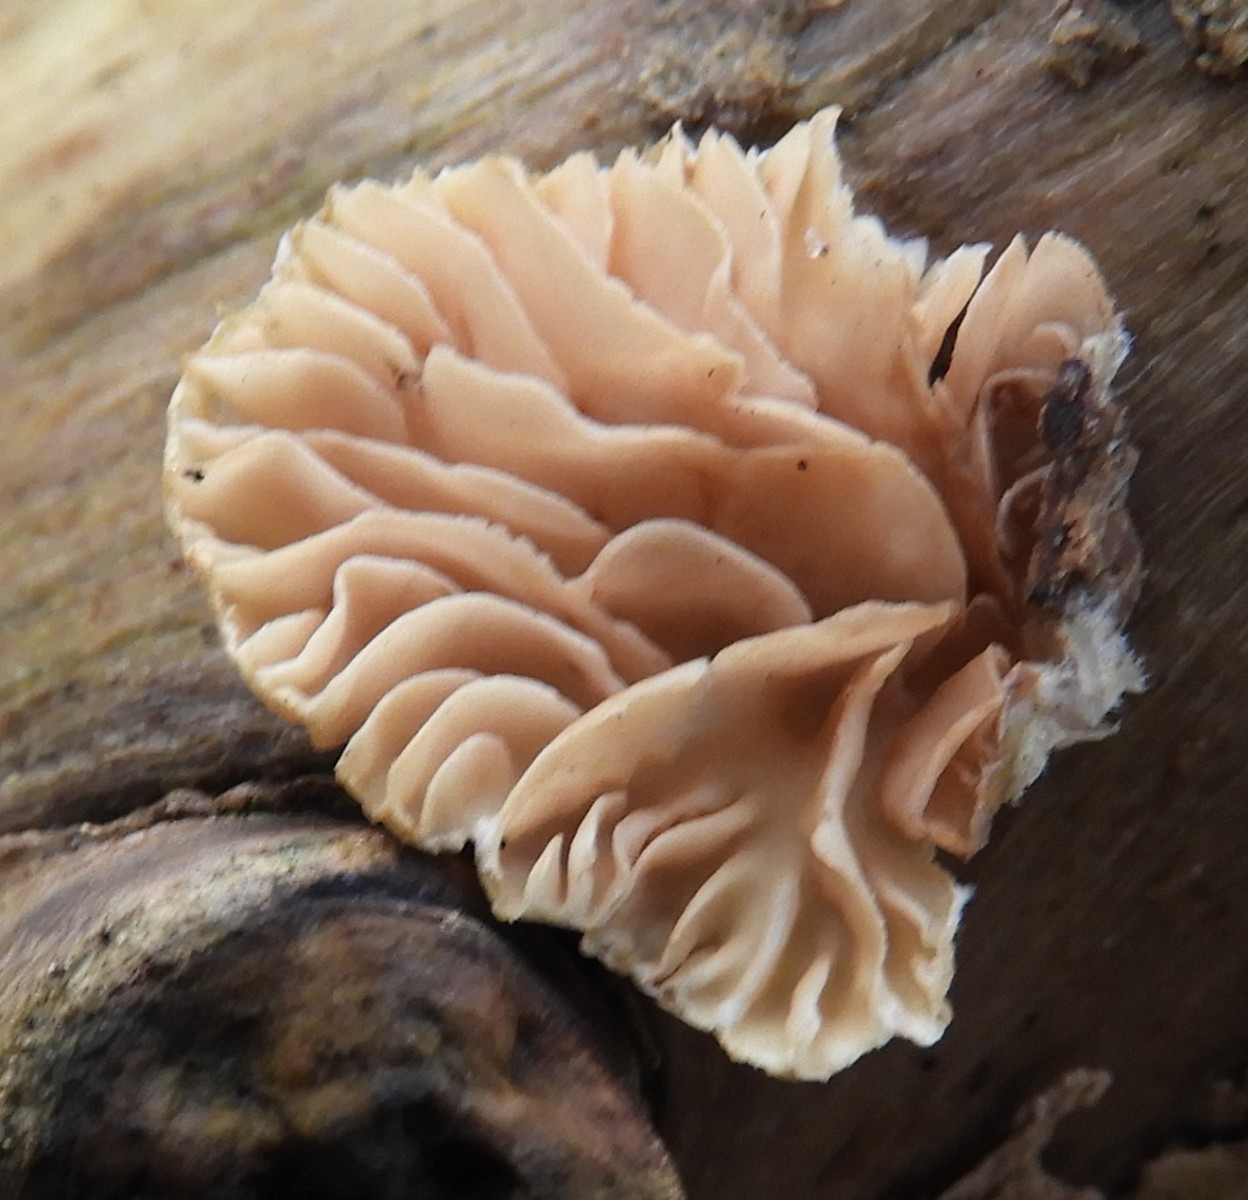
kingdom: Fungi
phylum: Basidiomycota
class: Agaricomycetes
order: Agaricales
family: Crepidotaceae
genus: Crepidotus
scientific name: Crepidotus
